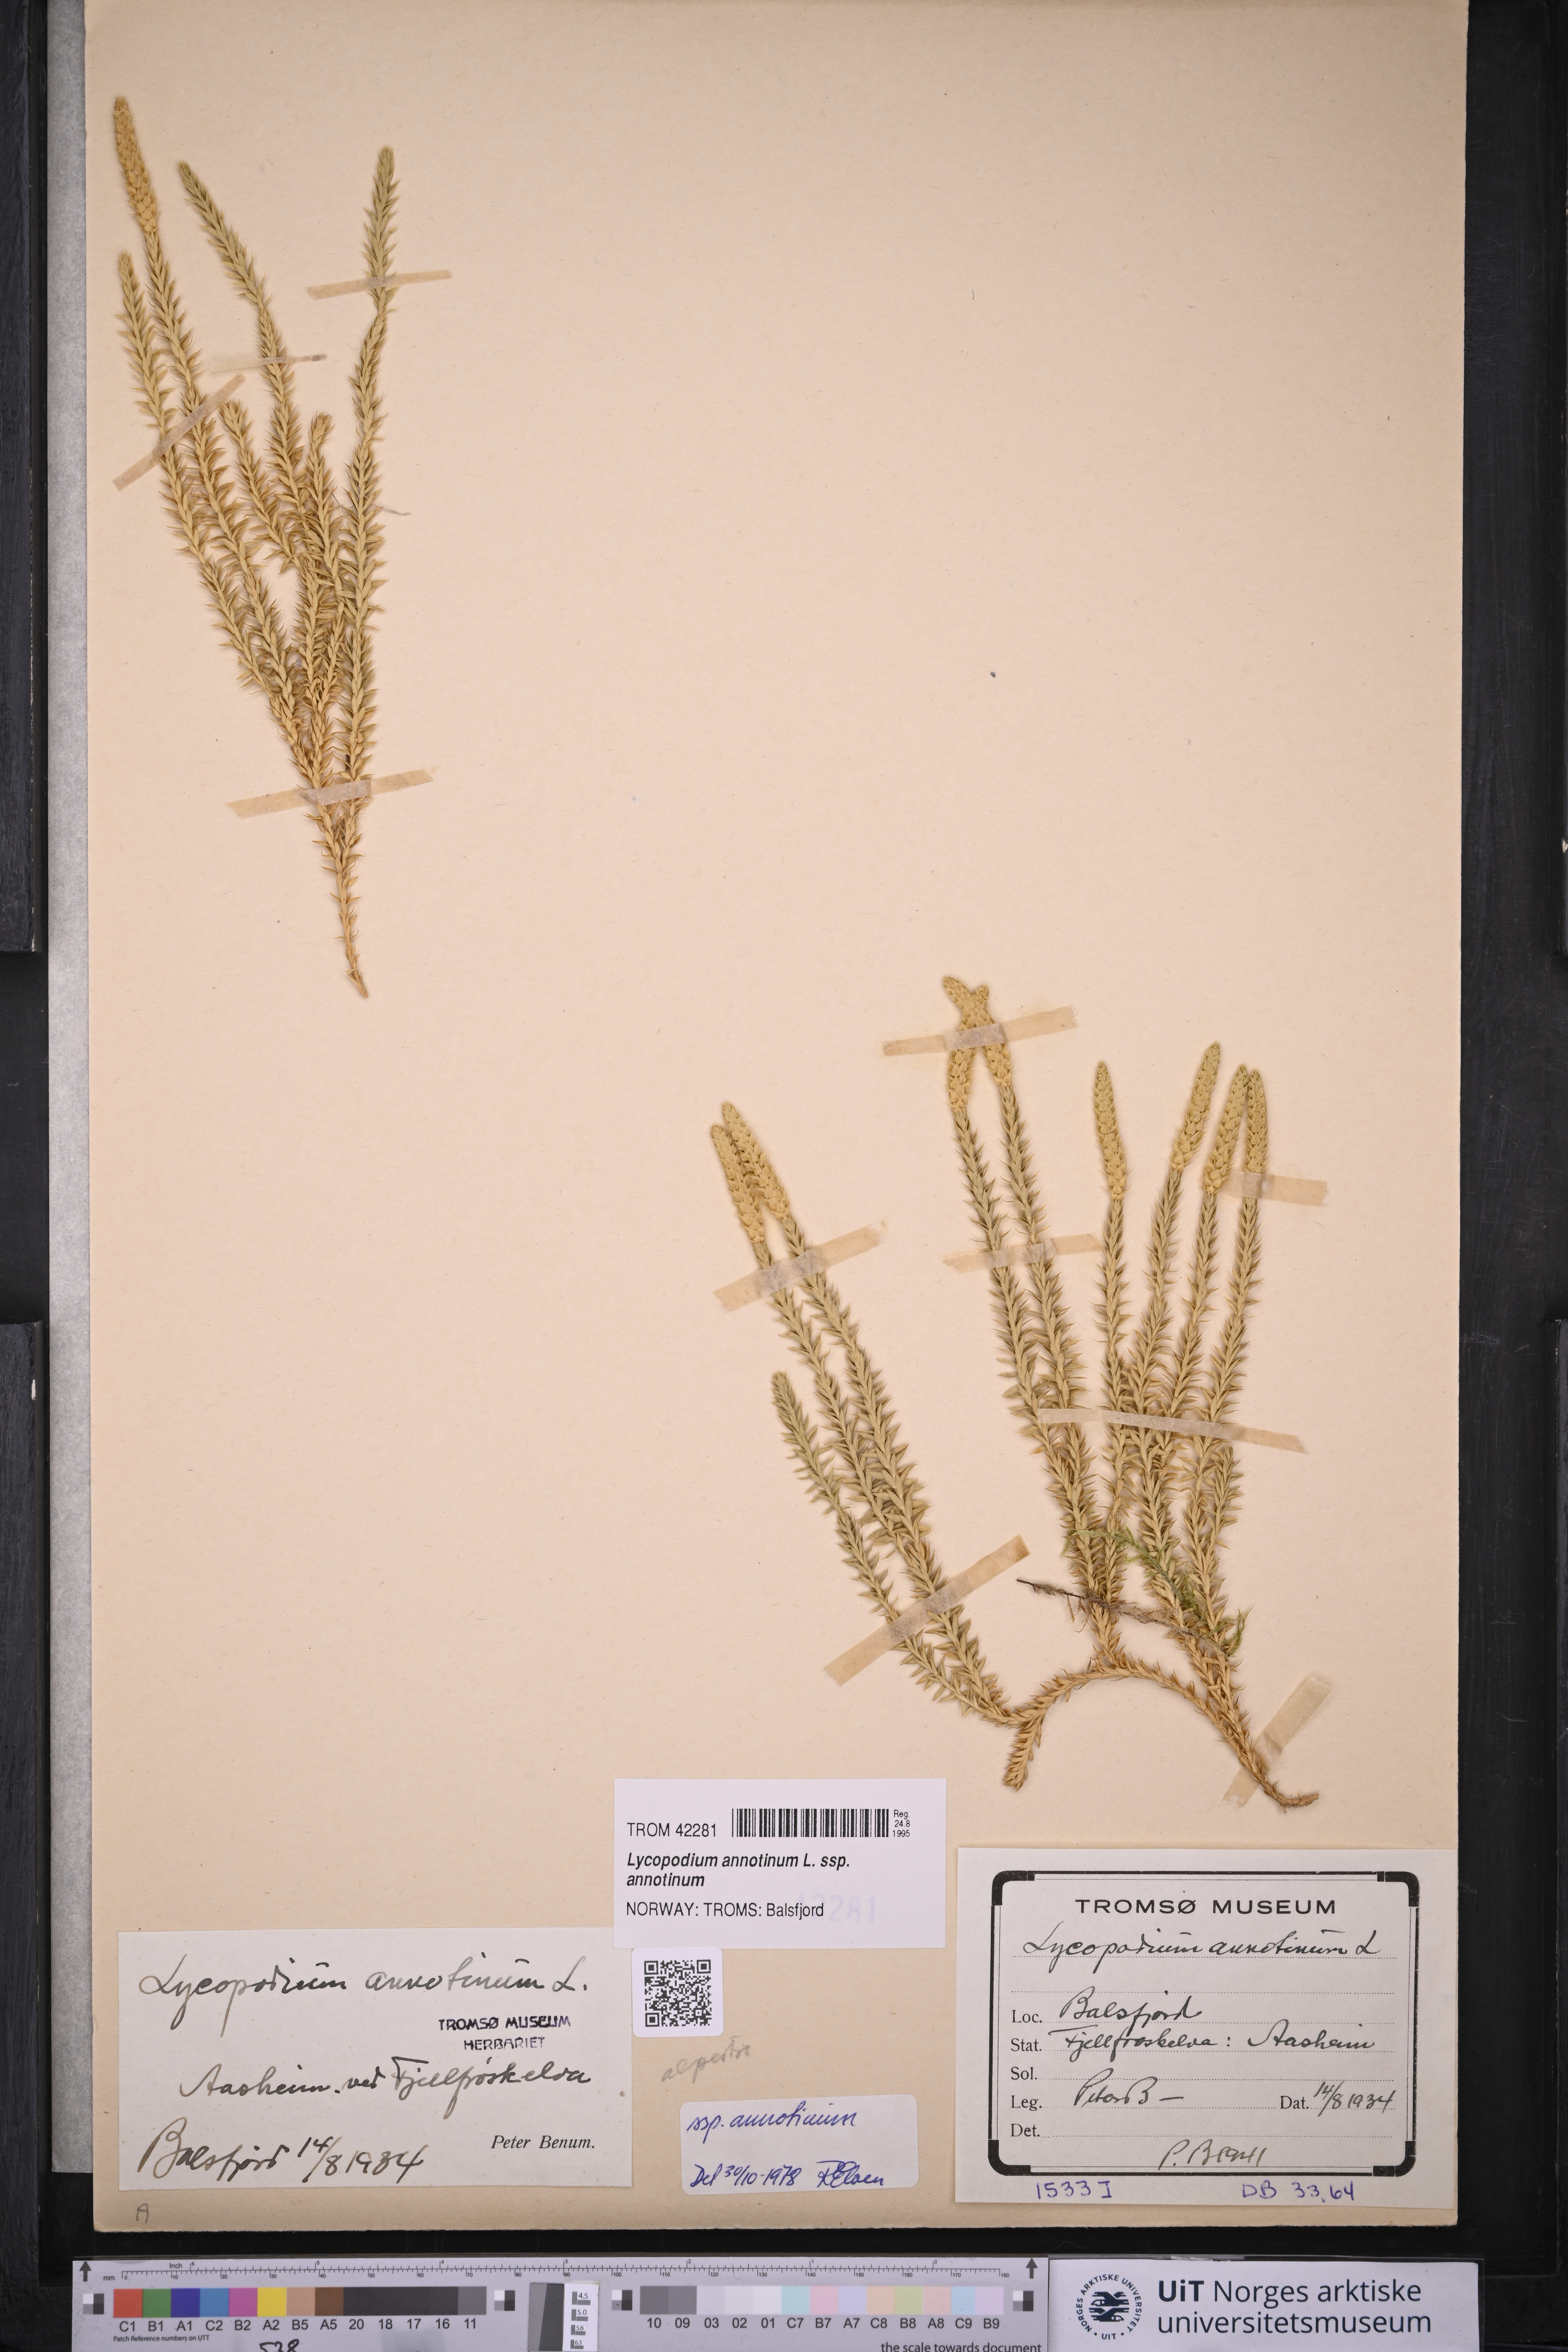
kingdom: Plantae
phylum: Tracheophyta
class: Lycopodiopsida
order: Lycopodiales
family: Lycopodiaceae
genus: Spinulum
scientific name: Spinulum annotinum
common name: Interrupted club-moss
